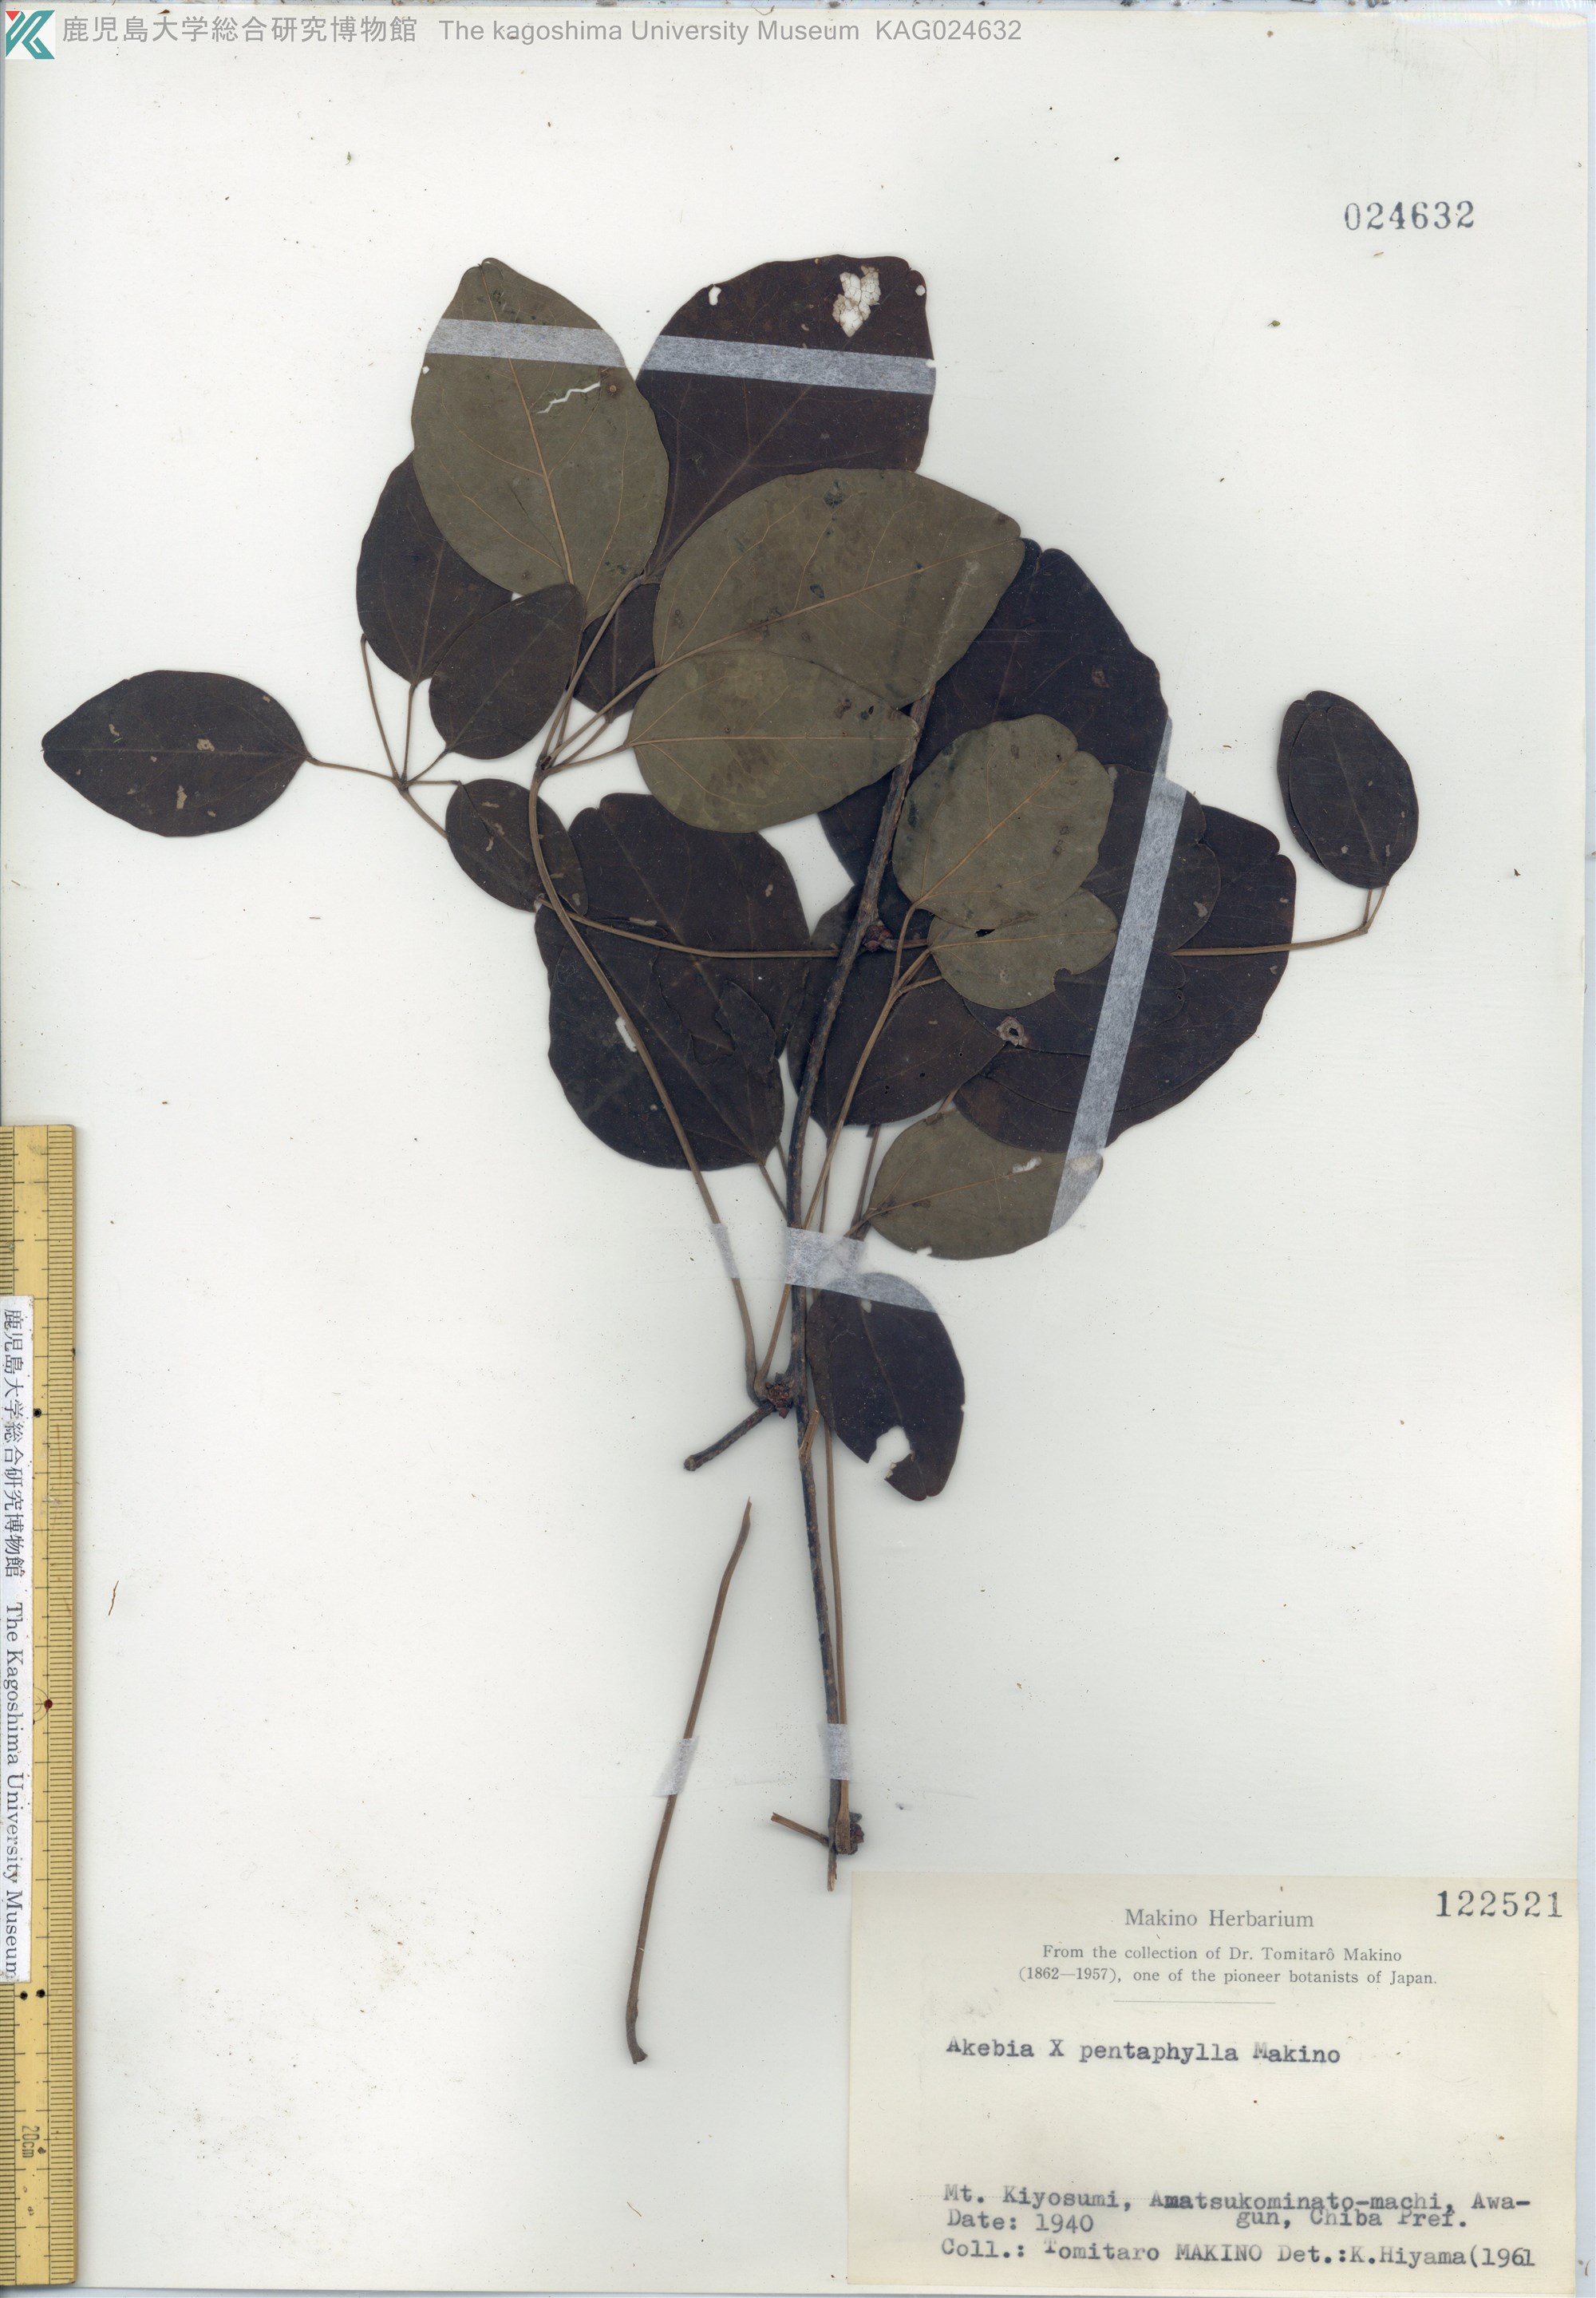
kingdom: Plantae
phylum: Tracheophyta
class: Magnoliopsida
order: Ranunculales
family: Lardizabalaceae
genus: Akebia
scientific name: Akebia pentaphylla
